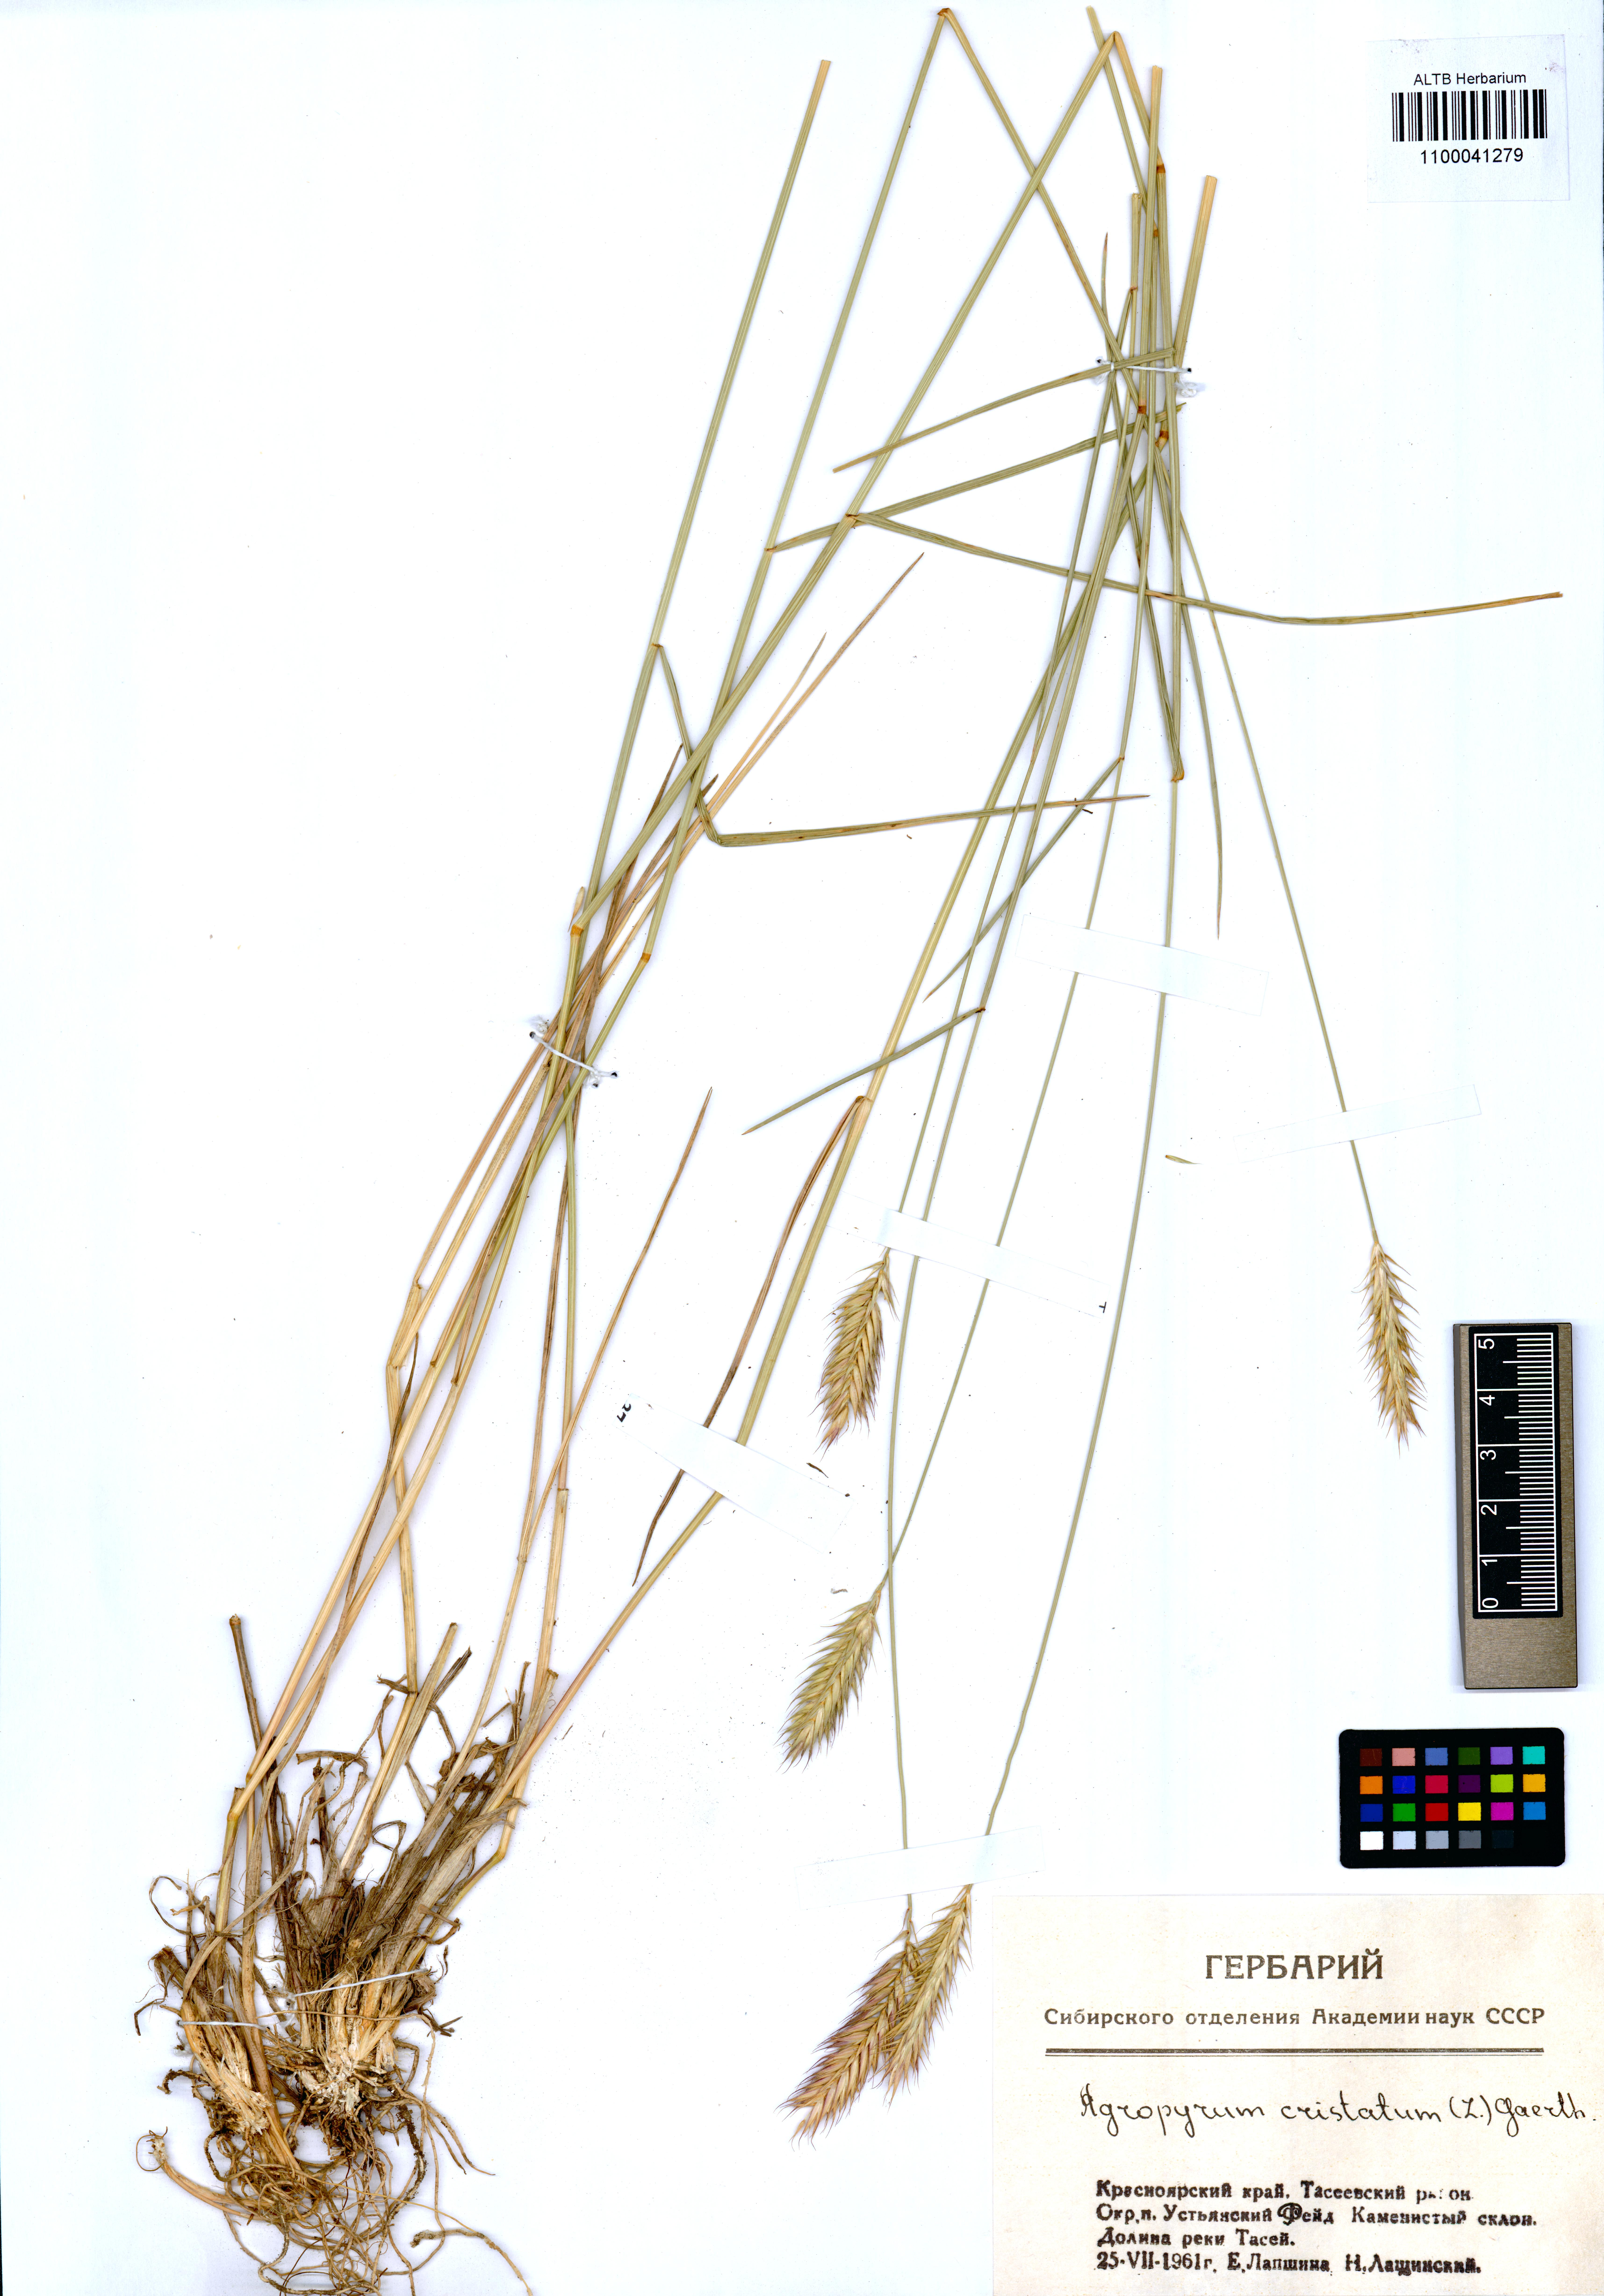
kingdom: Plantae
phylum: Tracheophyta
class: Liliopsida
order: Poales
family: Poaceae
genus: Agropyron
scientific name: Agropyron cristatum
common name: Crested wheatgrass
